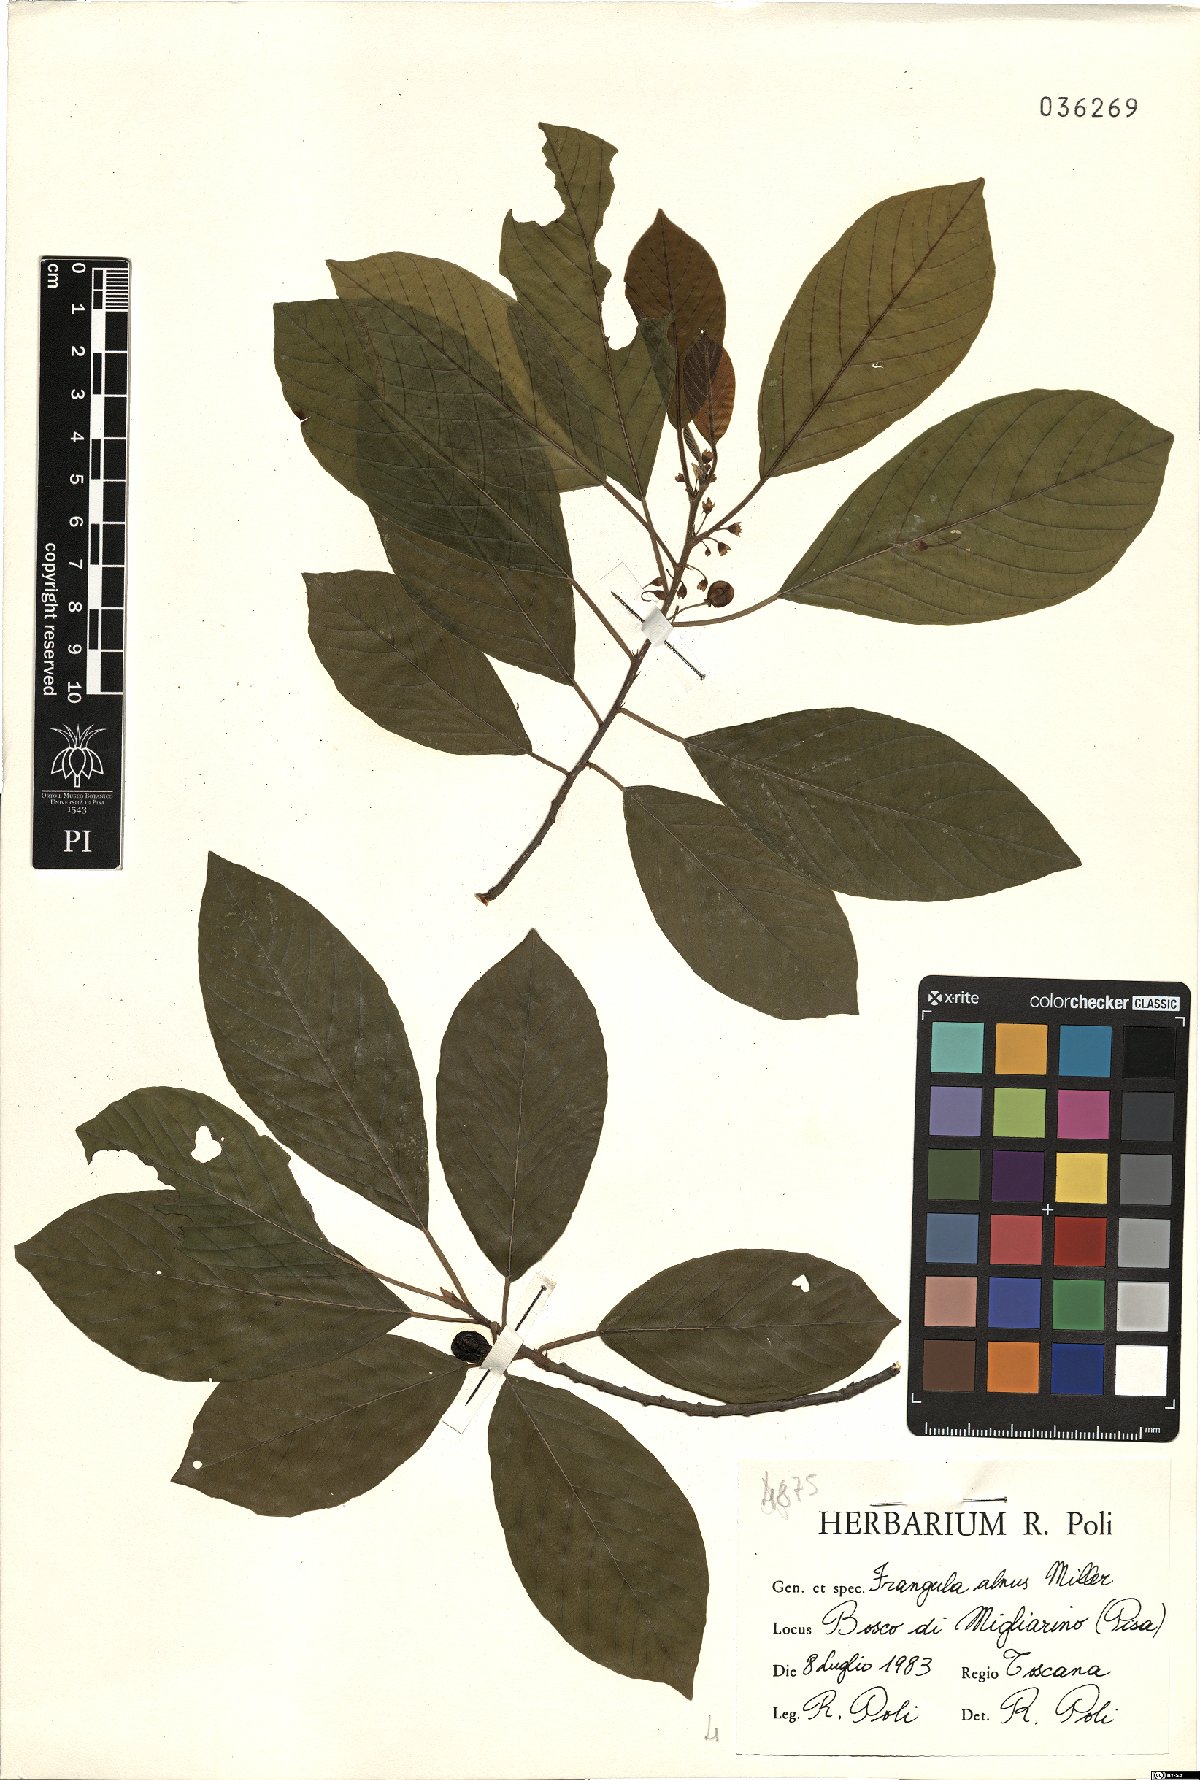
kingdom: Plantae
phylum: Tracheophyta
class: Magnoliopsida
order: Rosales
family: Rhamnaceae
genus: Frangula
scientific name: Frangula alnus
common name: Alder buckthorn
